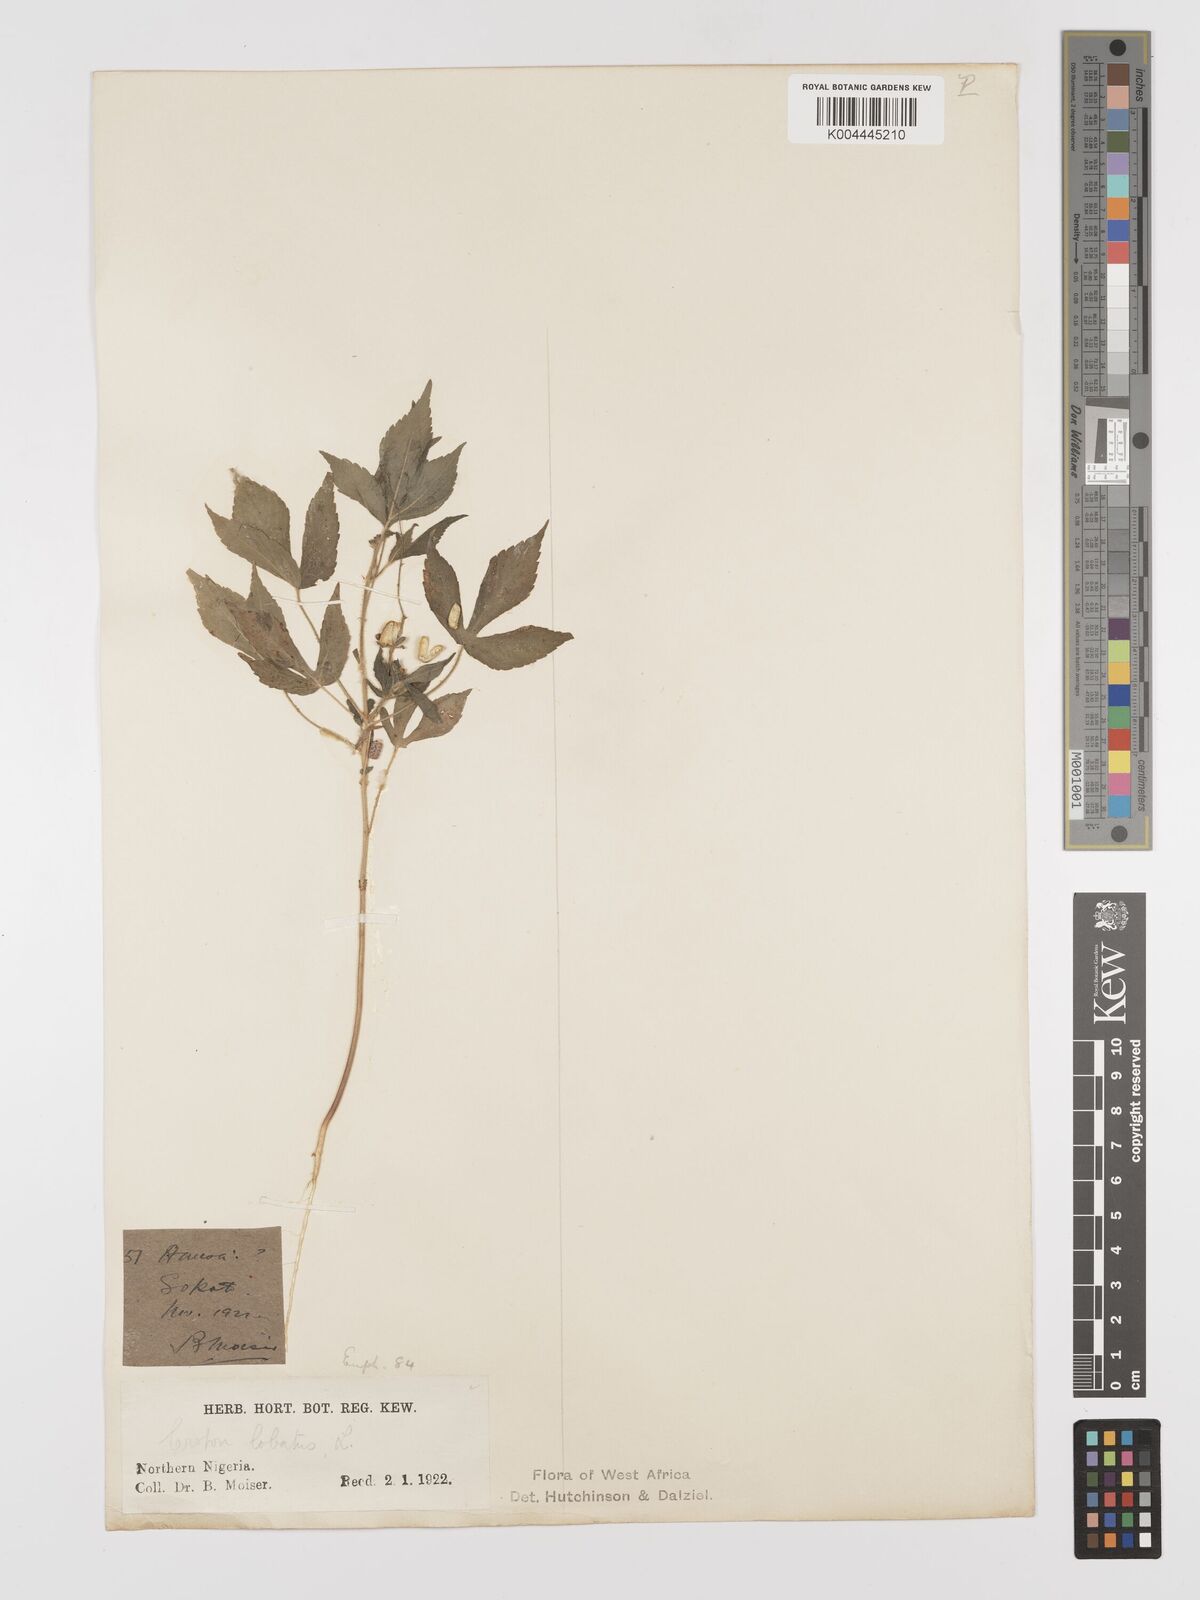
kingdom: Plantae
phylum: Tracheophyta
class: Magnoliopsida
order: Malpighiales
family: Euphorbiaceae
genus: Astraea
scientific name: Astraea lobata
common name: Lobed croton
